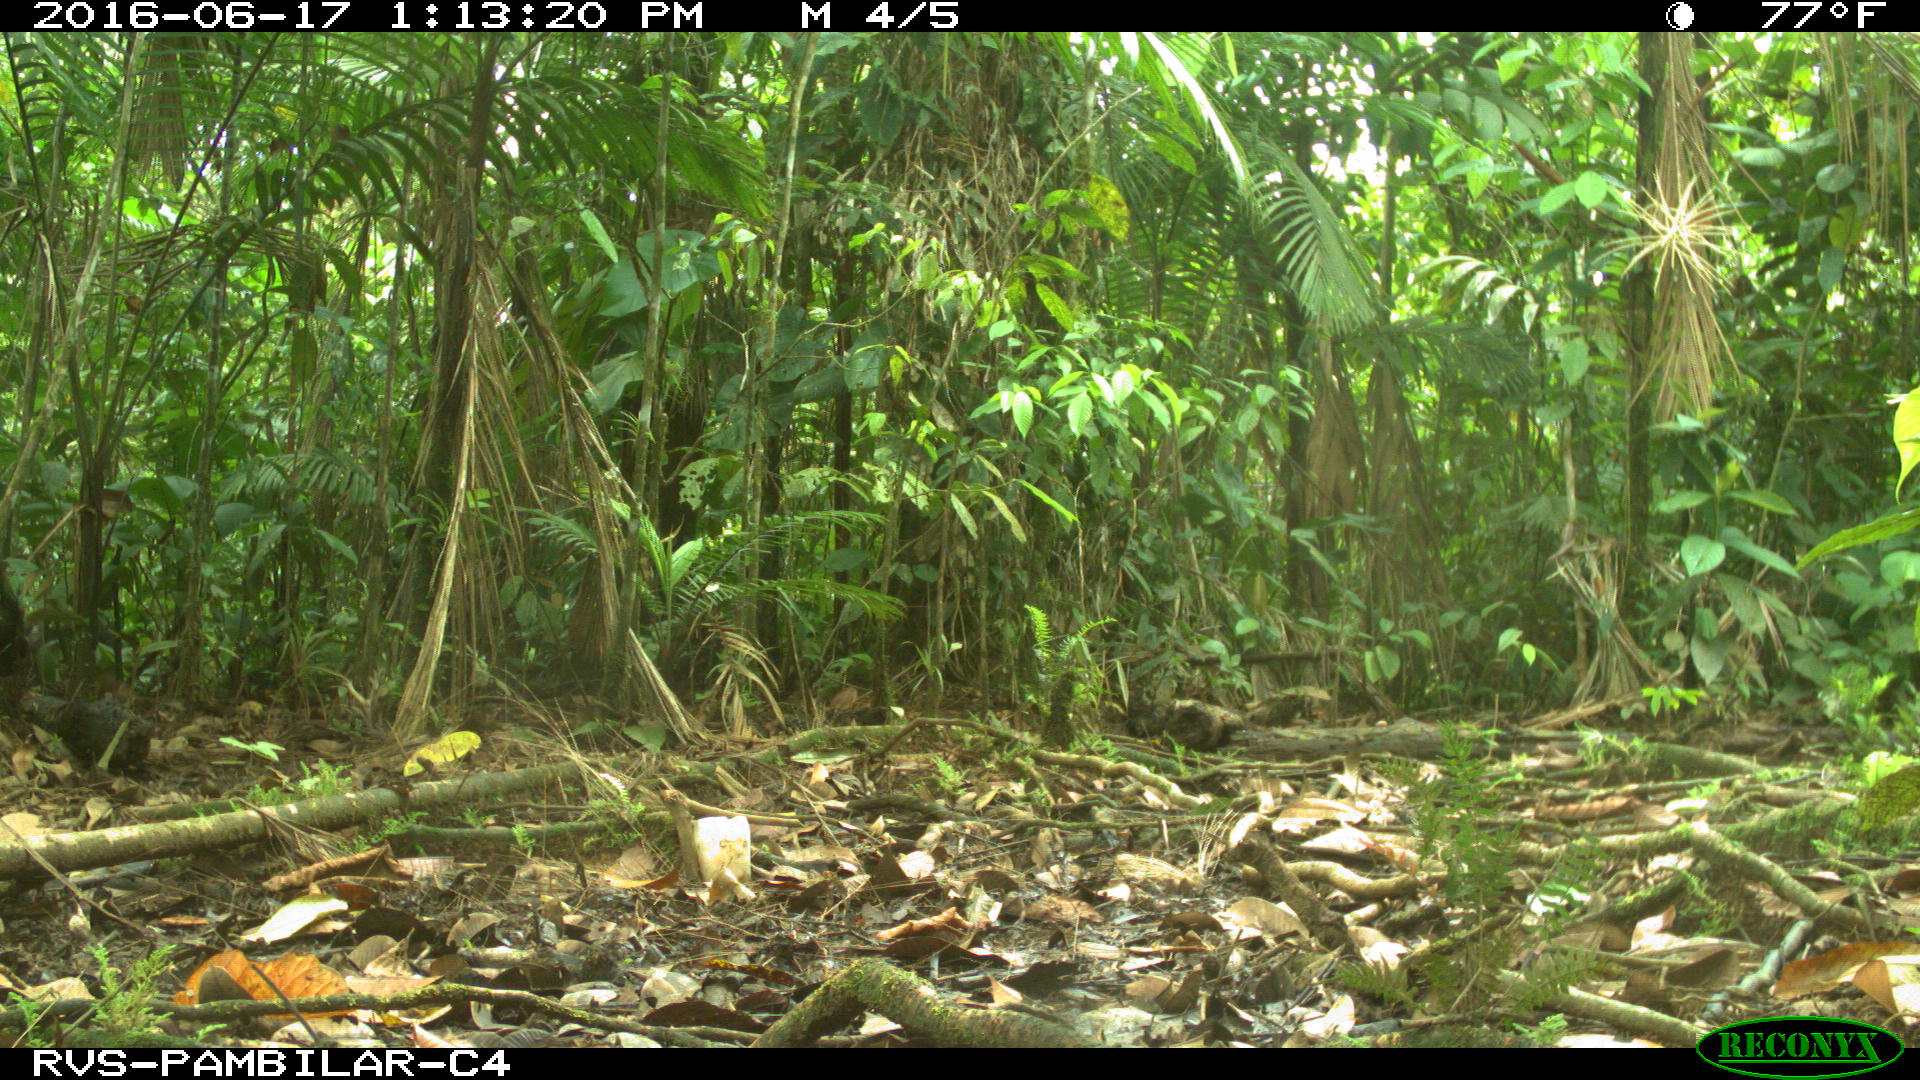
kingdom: Animalia
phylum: Chordata
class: Mammalia
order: Artiodactyla
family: Tayassuidae
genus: Tayassu
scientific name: Tayassu pecari
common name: White-lipped peccary
